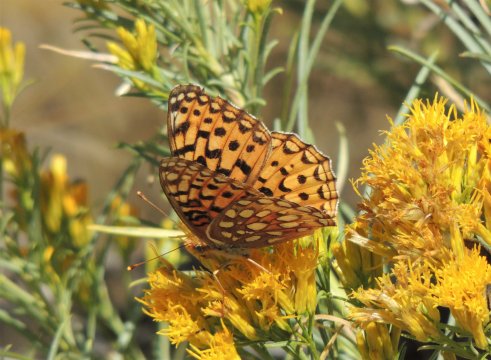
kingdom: Animalia
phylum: Arthropoda
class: Insecta
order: Lepidoptera
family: Nymphalidae
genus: Speyeria
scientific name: Speyeria coronis
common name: Coronis Fritillary
